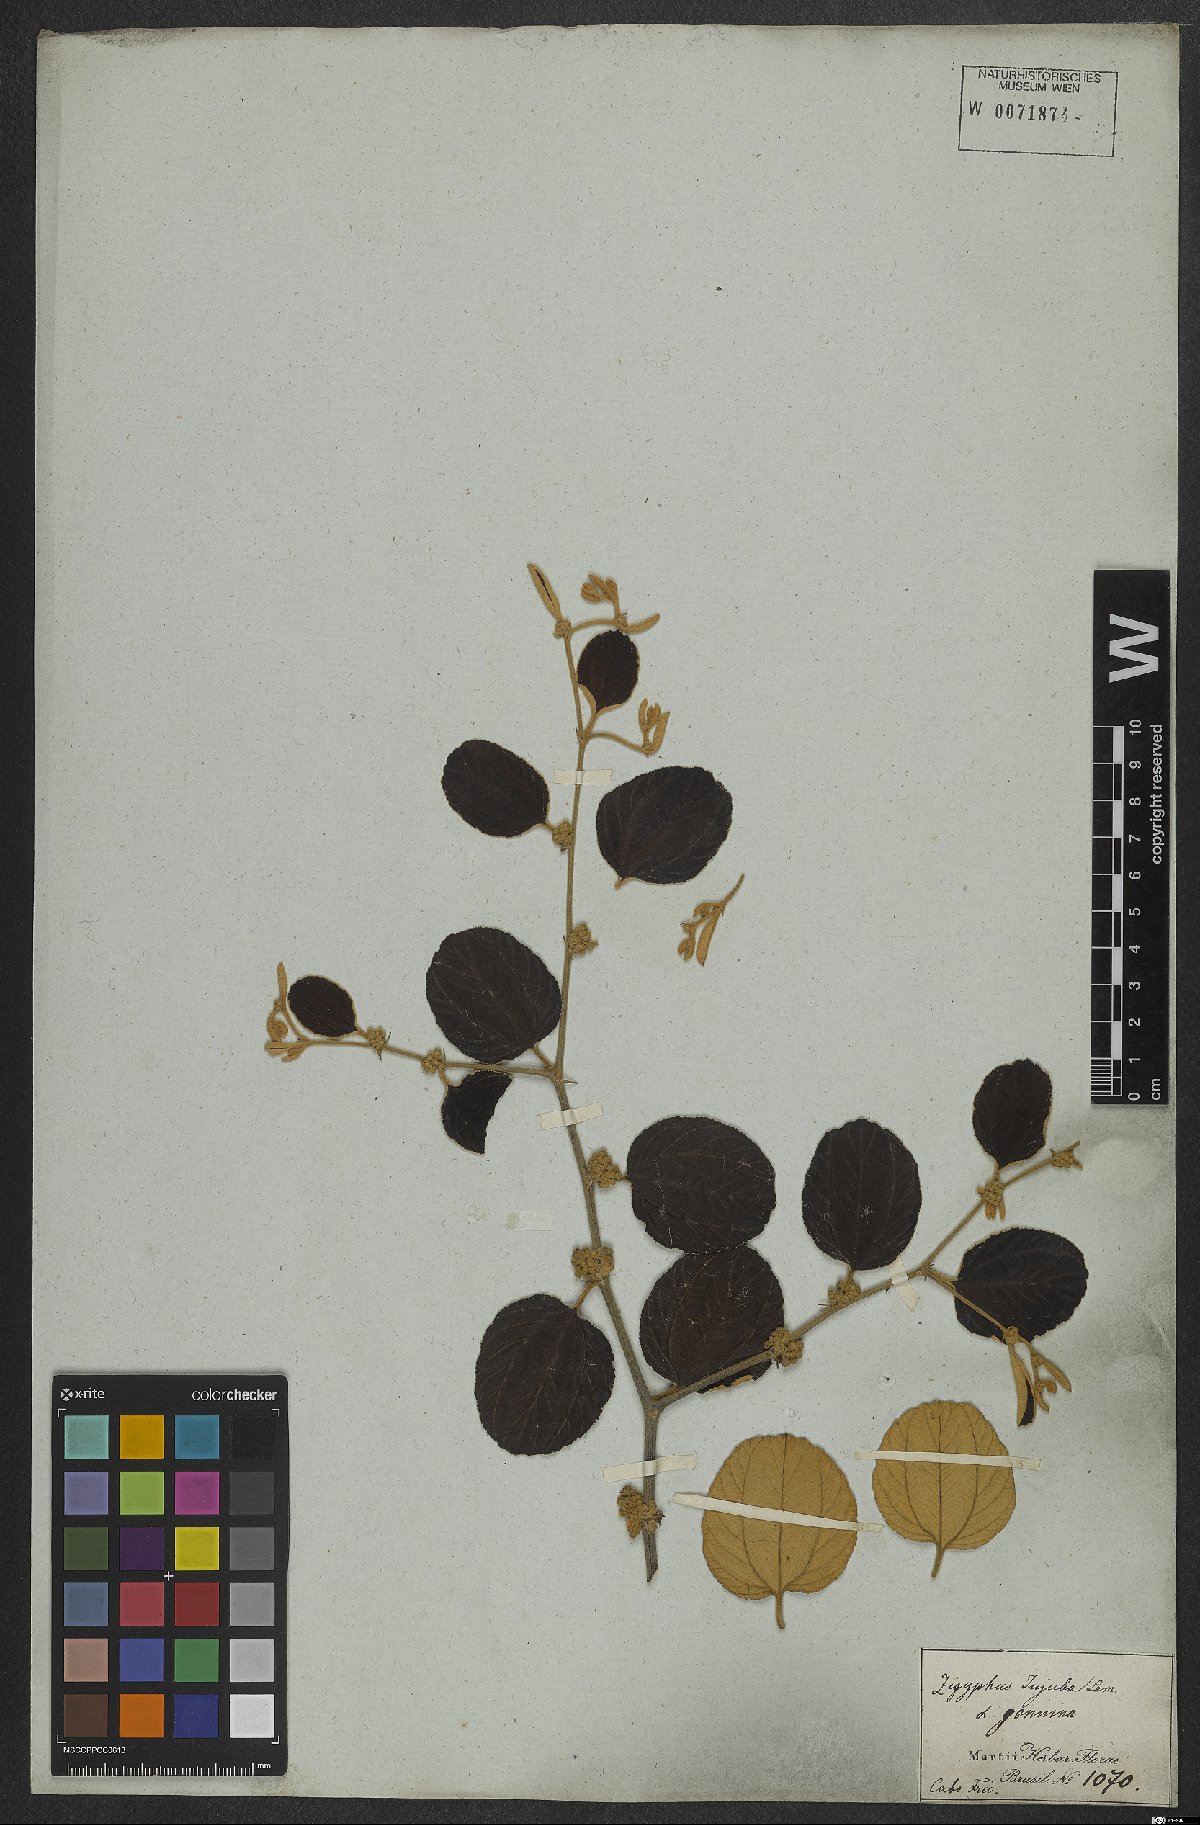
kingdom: Plantae
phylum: Tracheophyta
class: Magnoliopsida
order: Rosales
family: Rhamnaceae
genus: Ziziphus
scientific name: Ziziphus mauritiana
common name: Indian jujube
